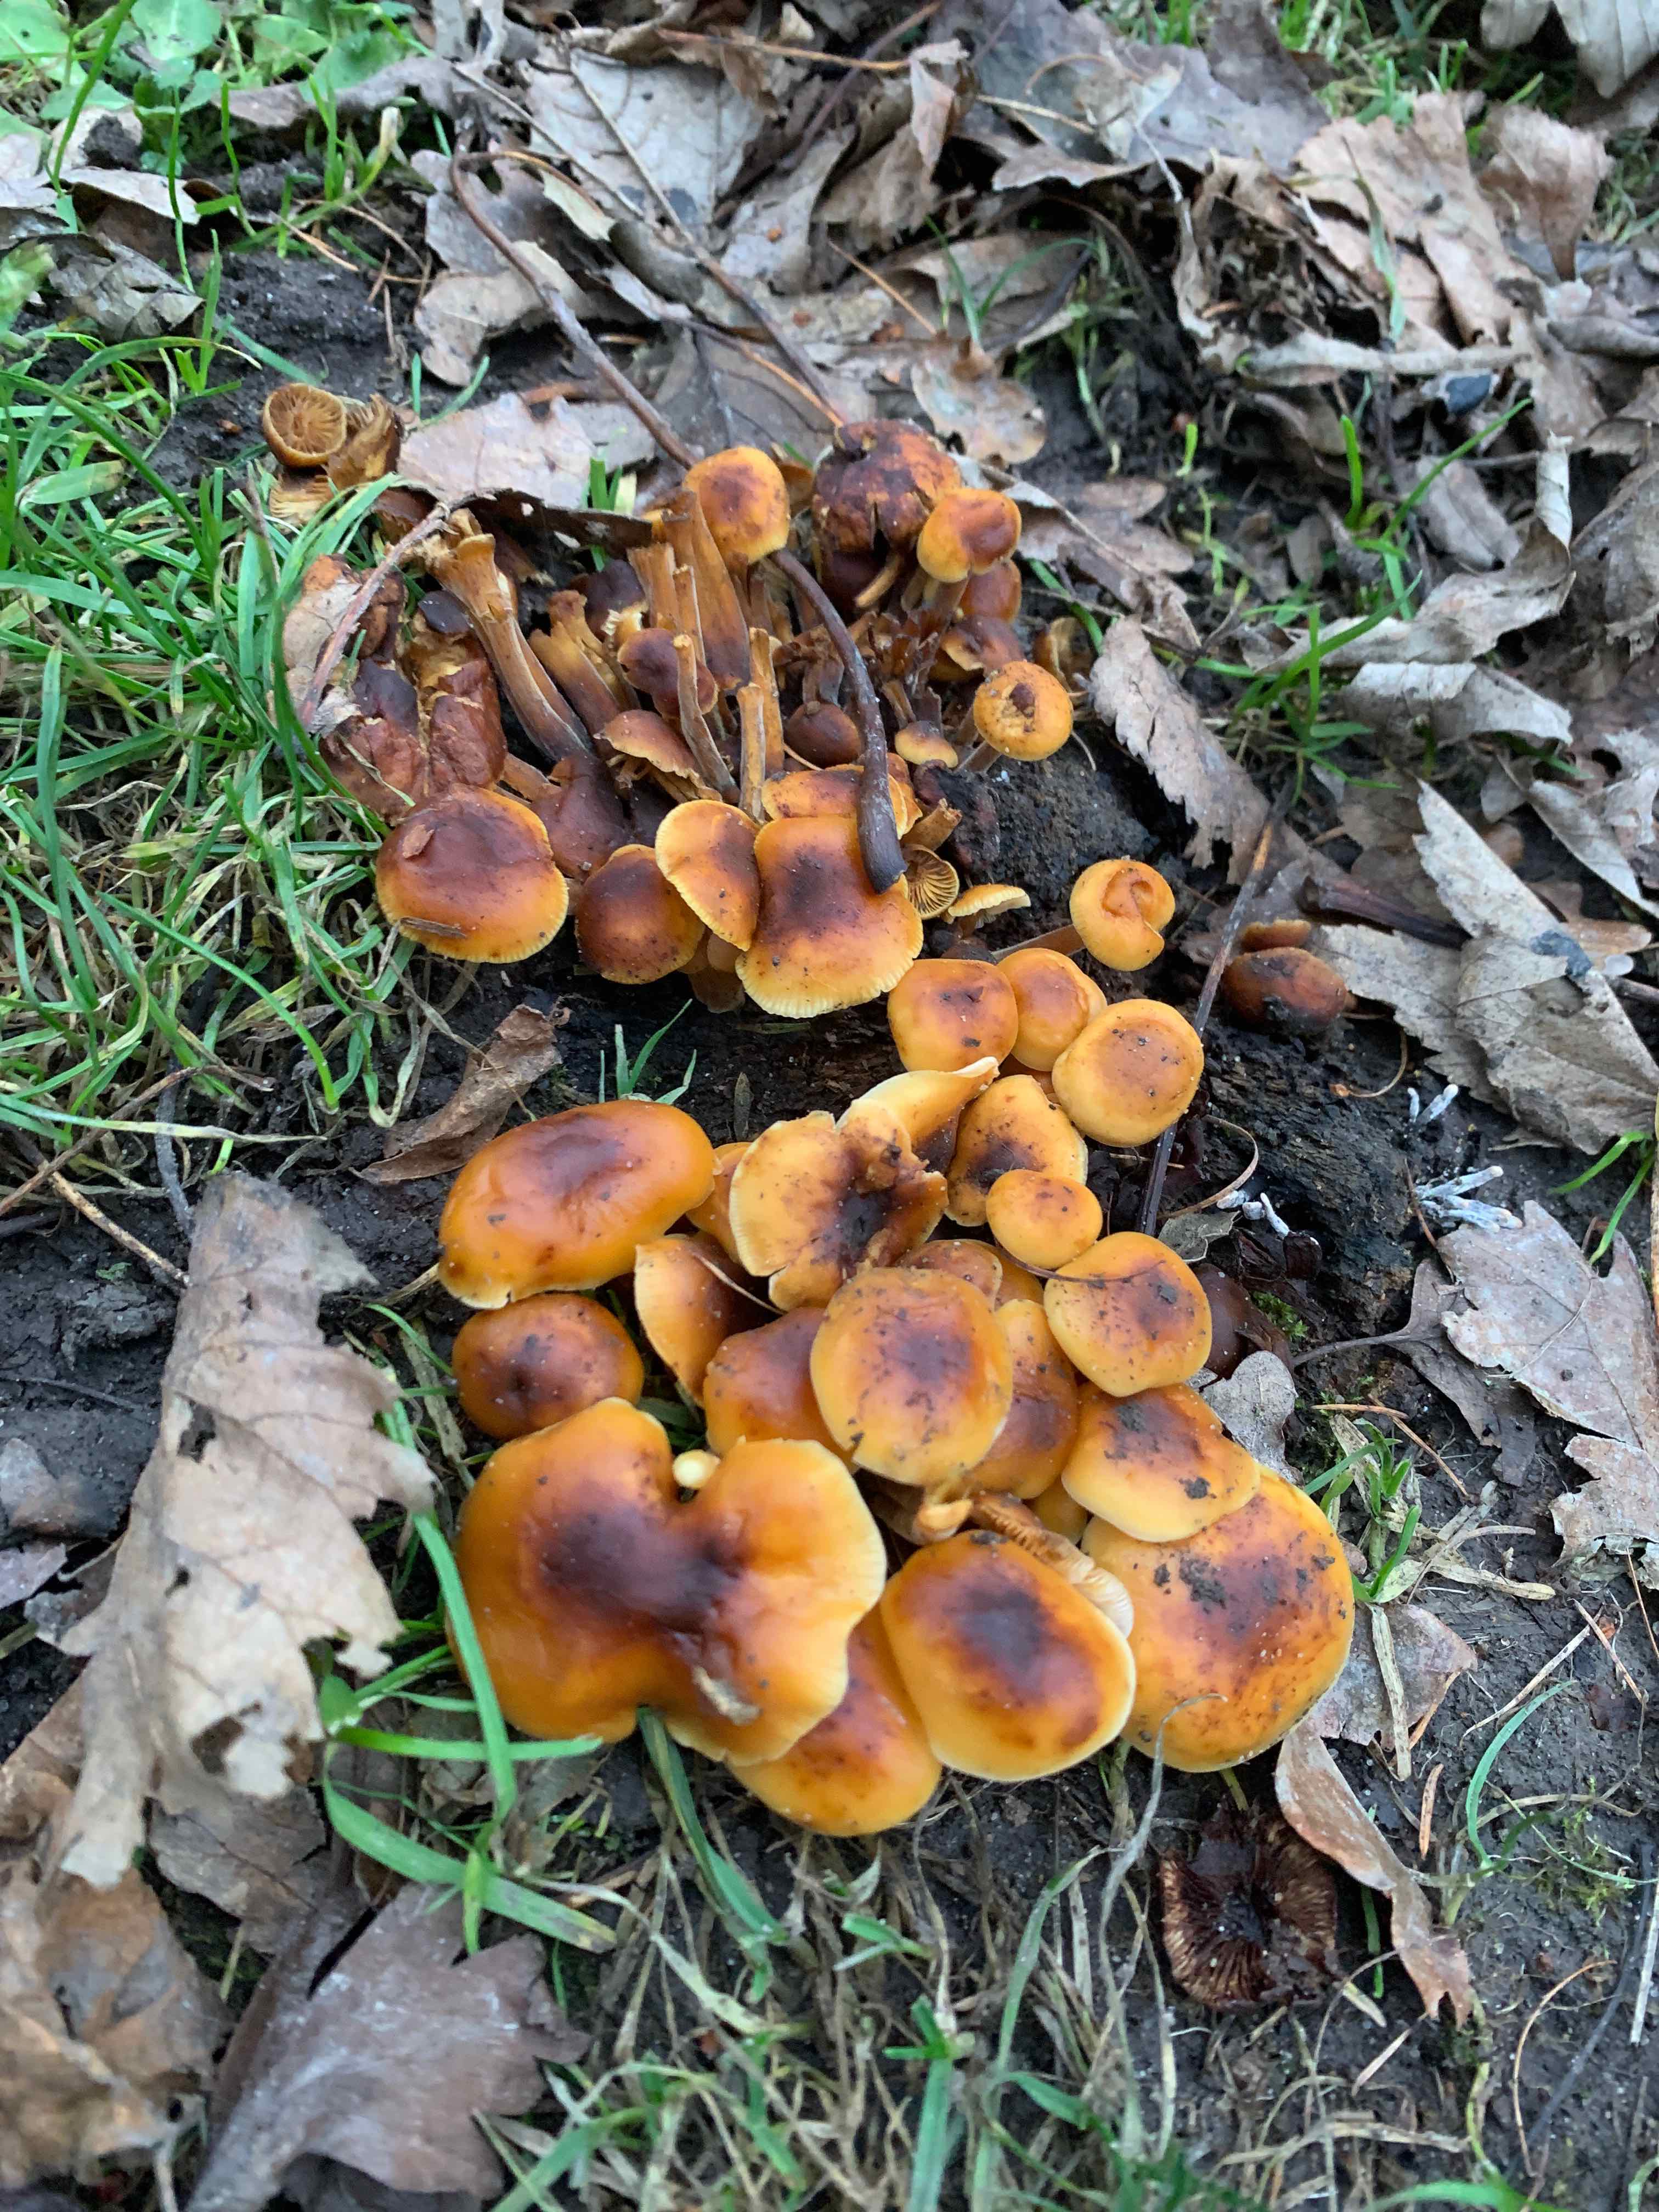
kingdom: Fungi
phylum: Basidiomycota
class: Agaricomycetes
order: Agaricales
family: Physalacriaceae
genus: Flammulina
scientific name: Flammulina velutipes
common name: gul fløjlsfod
